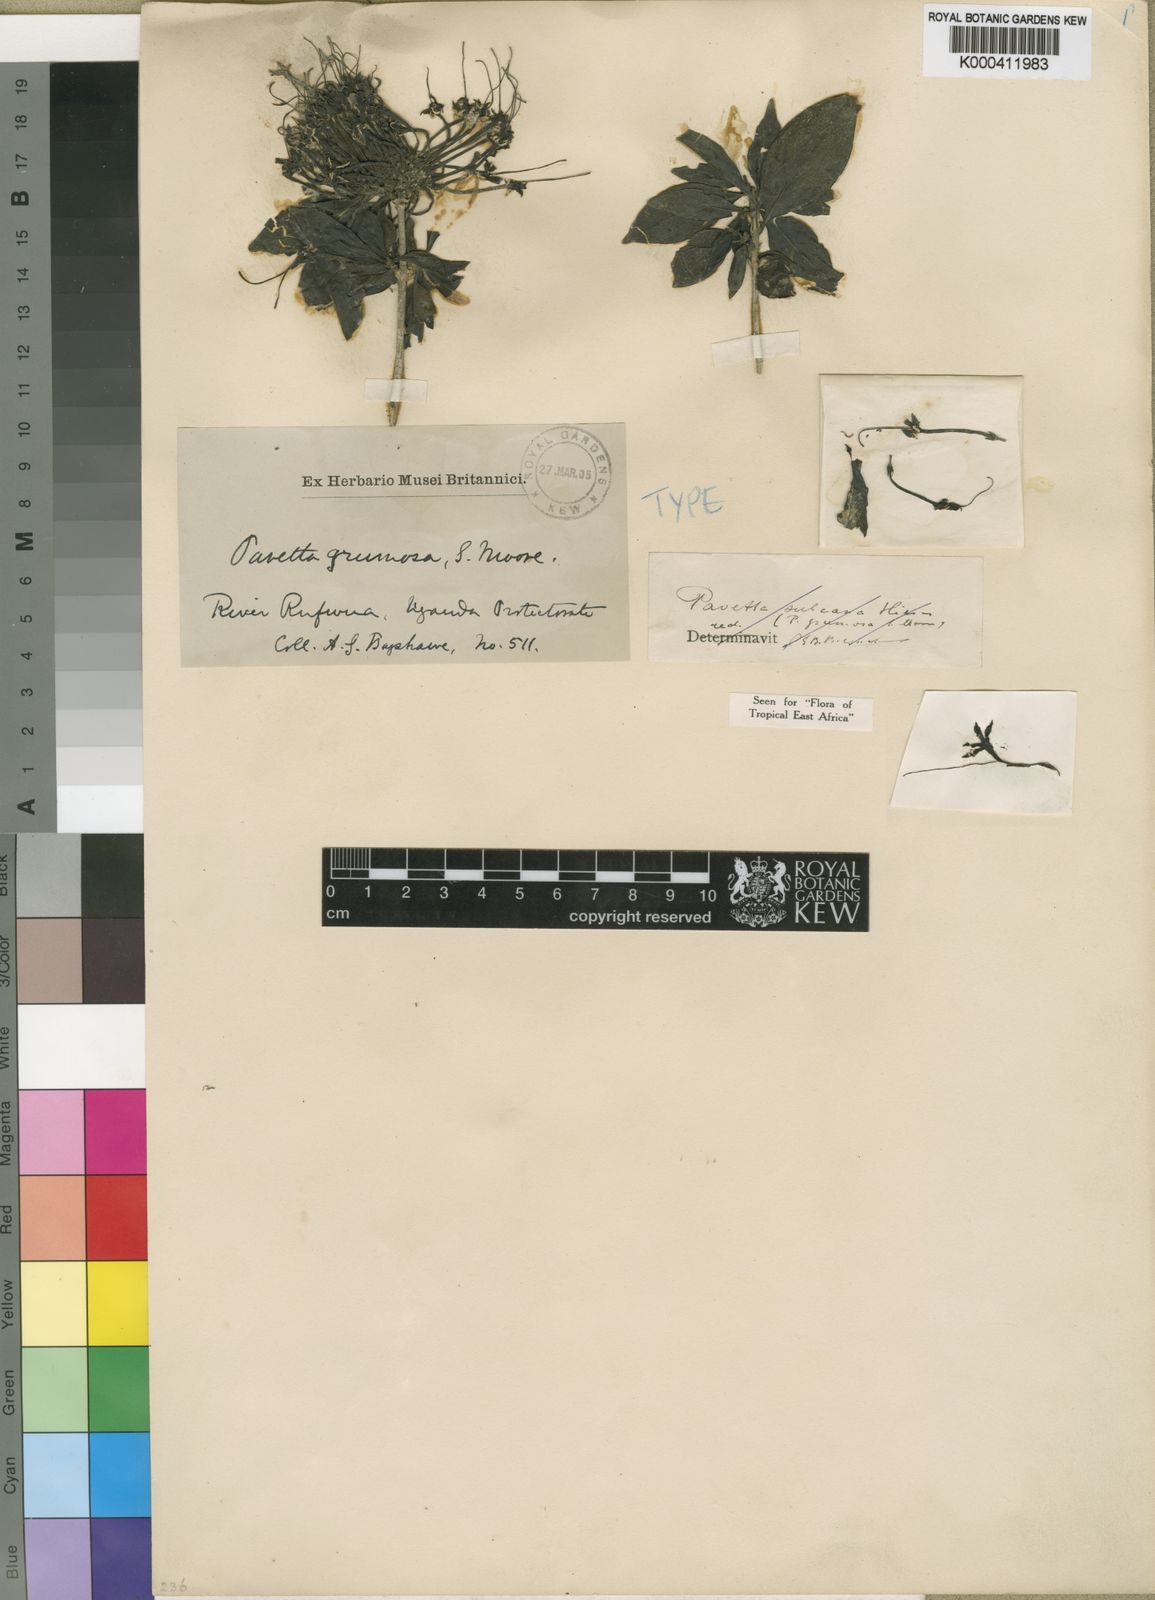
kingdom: Plantae
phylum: Tracheophyta
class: Magnoliopsida
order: Gentianales
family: Rubiaceae
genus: Pavetta
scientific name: Pavetta grumosa
